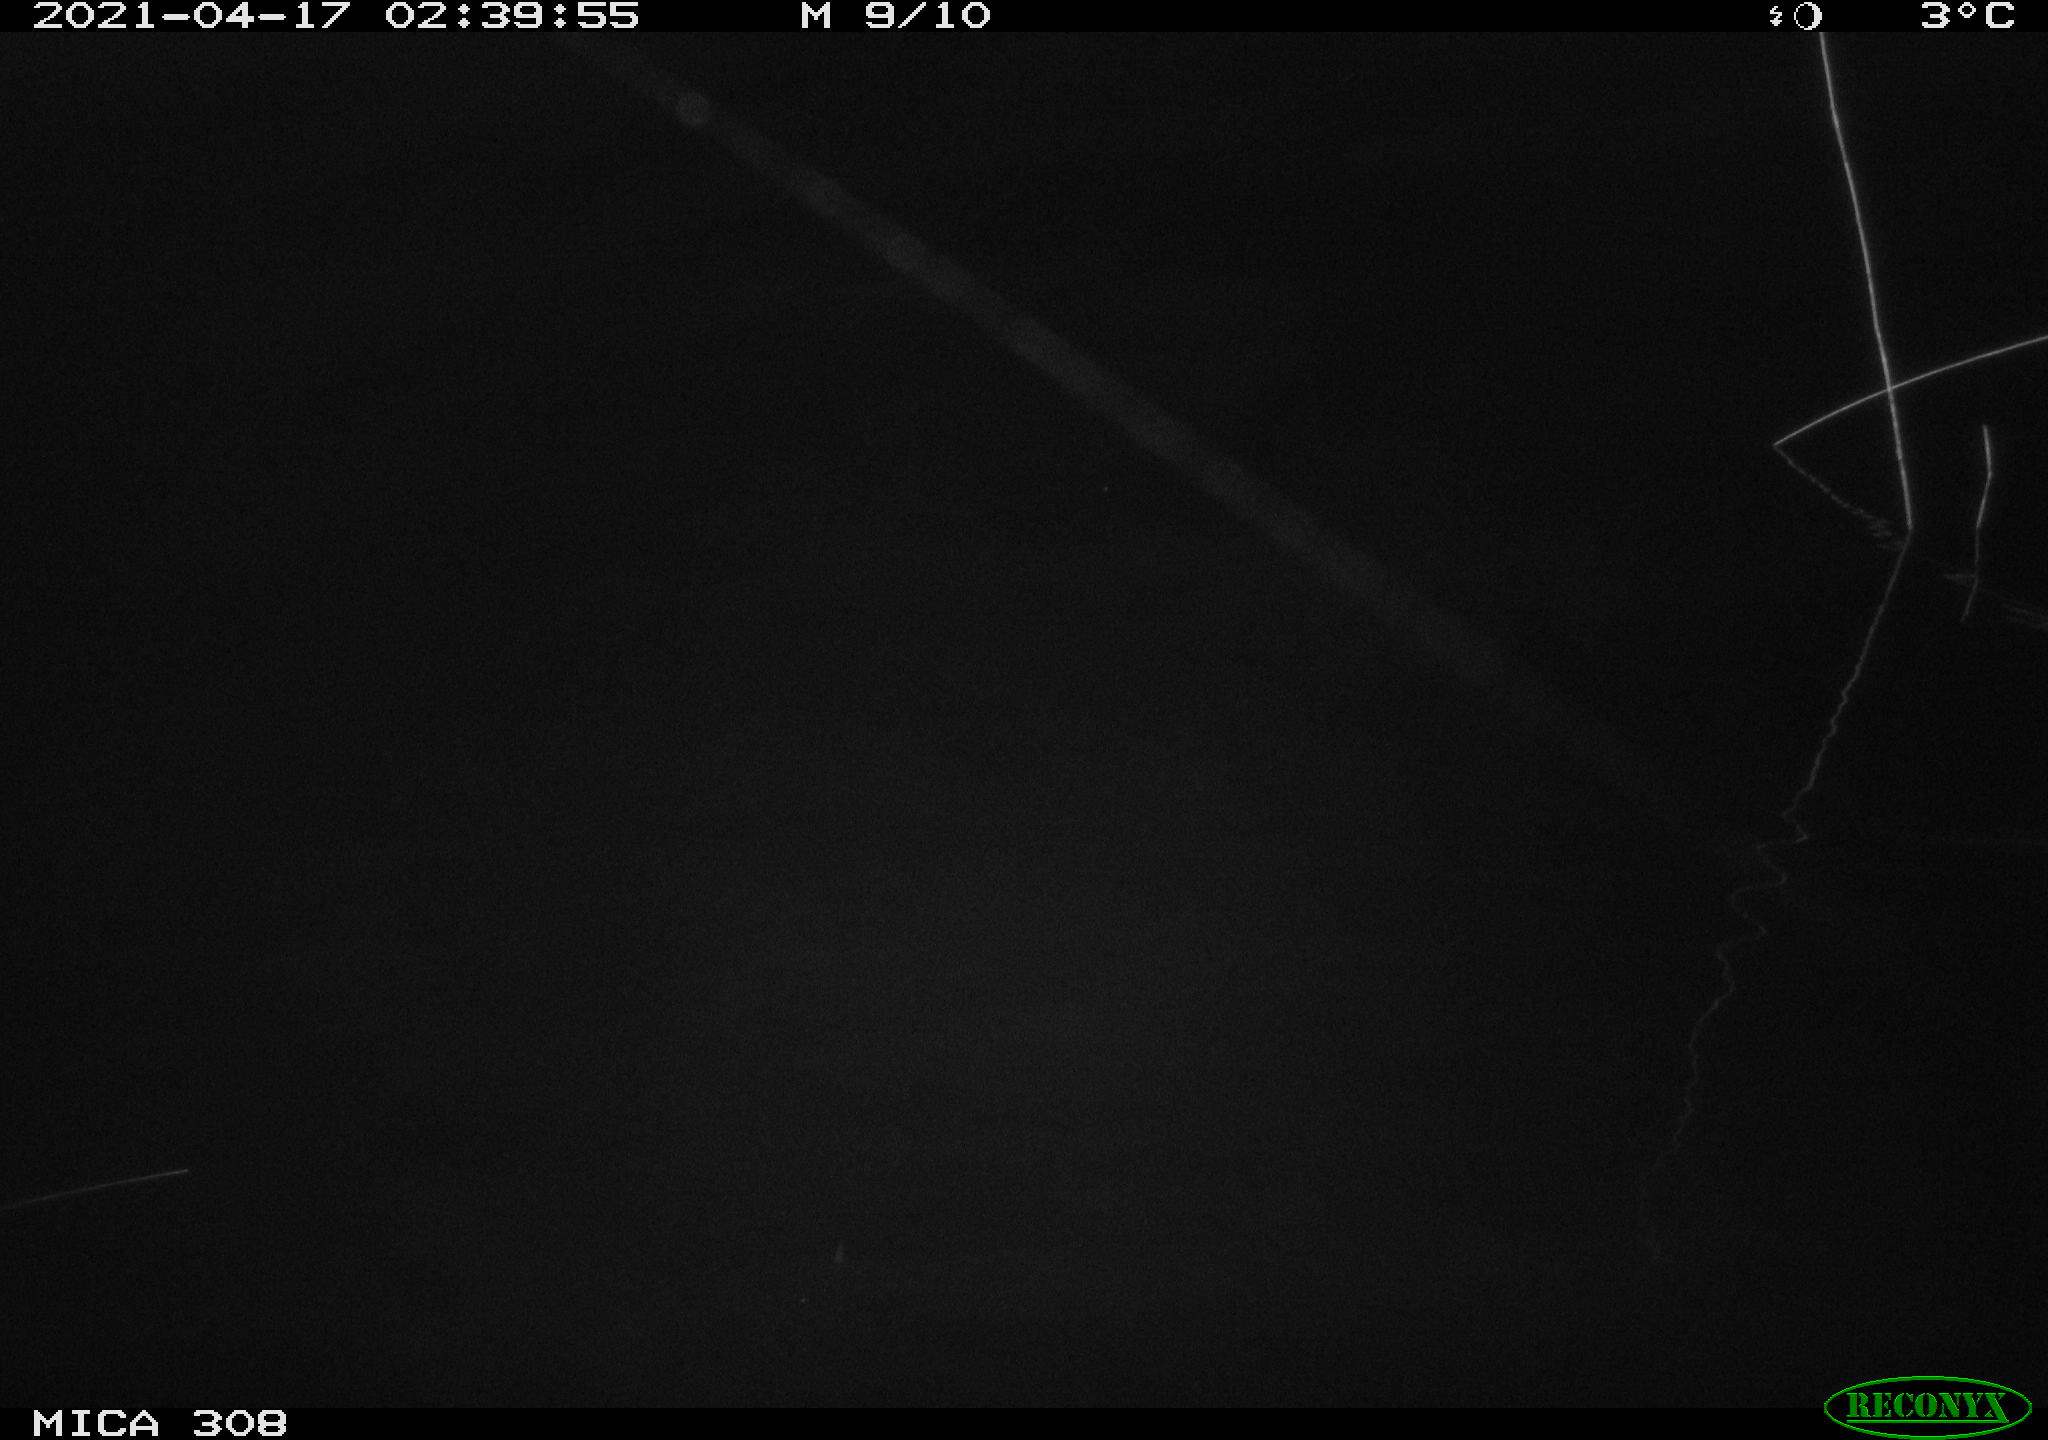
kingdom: Animalia
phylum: Chordata
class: Aves
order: Anseriformes
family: Anatidae
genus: Anas
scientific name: Anas platyrhynchos
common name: Mallard
